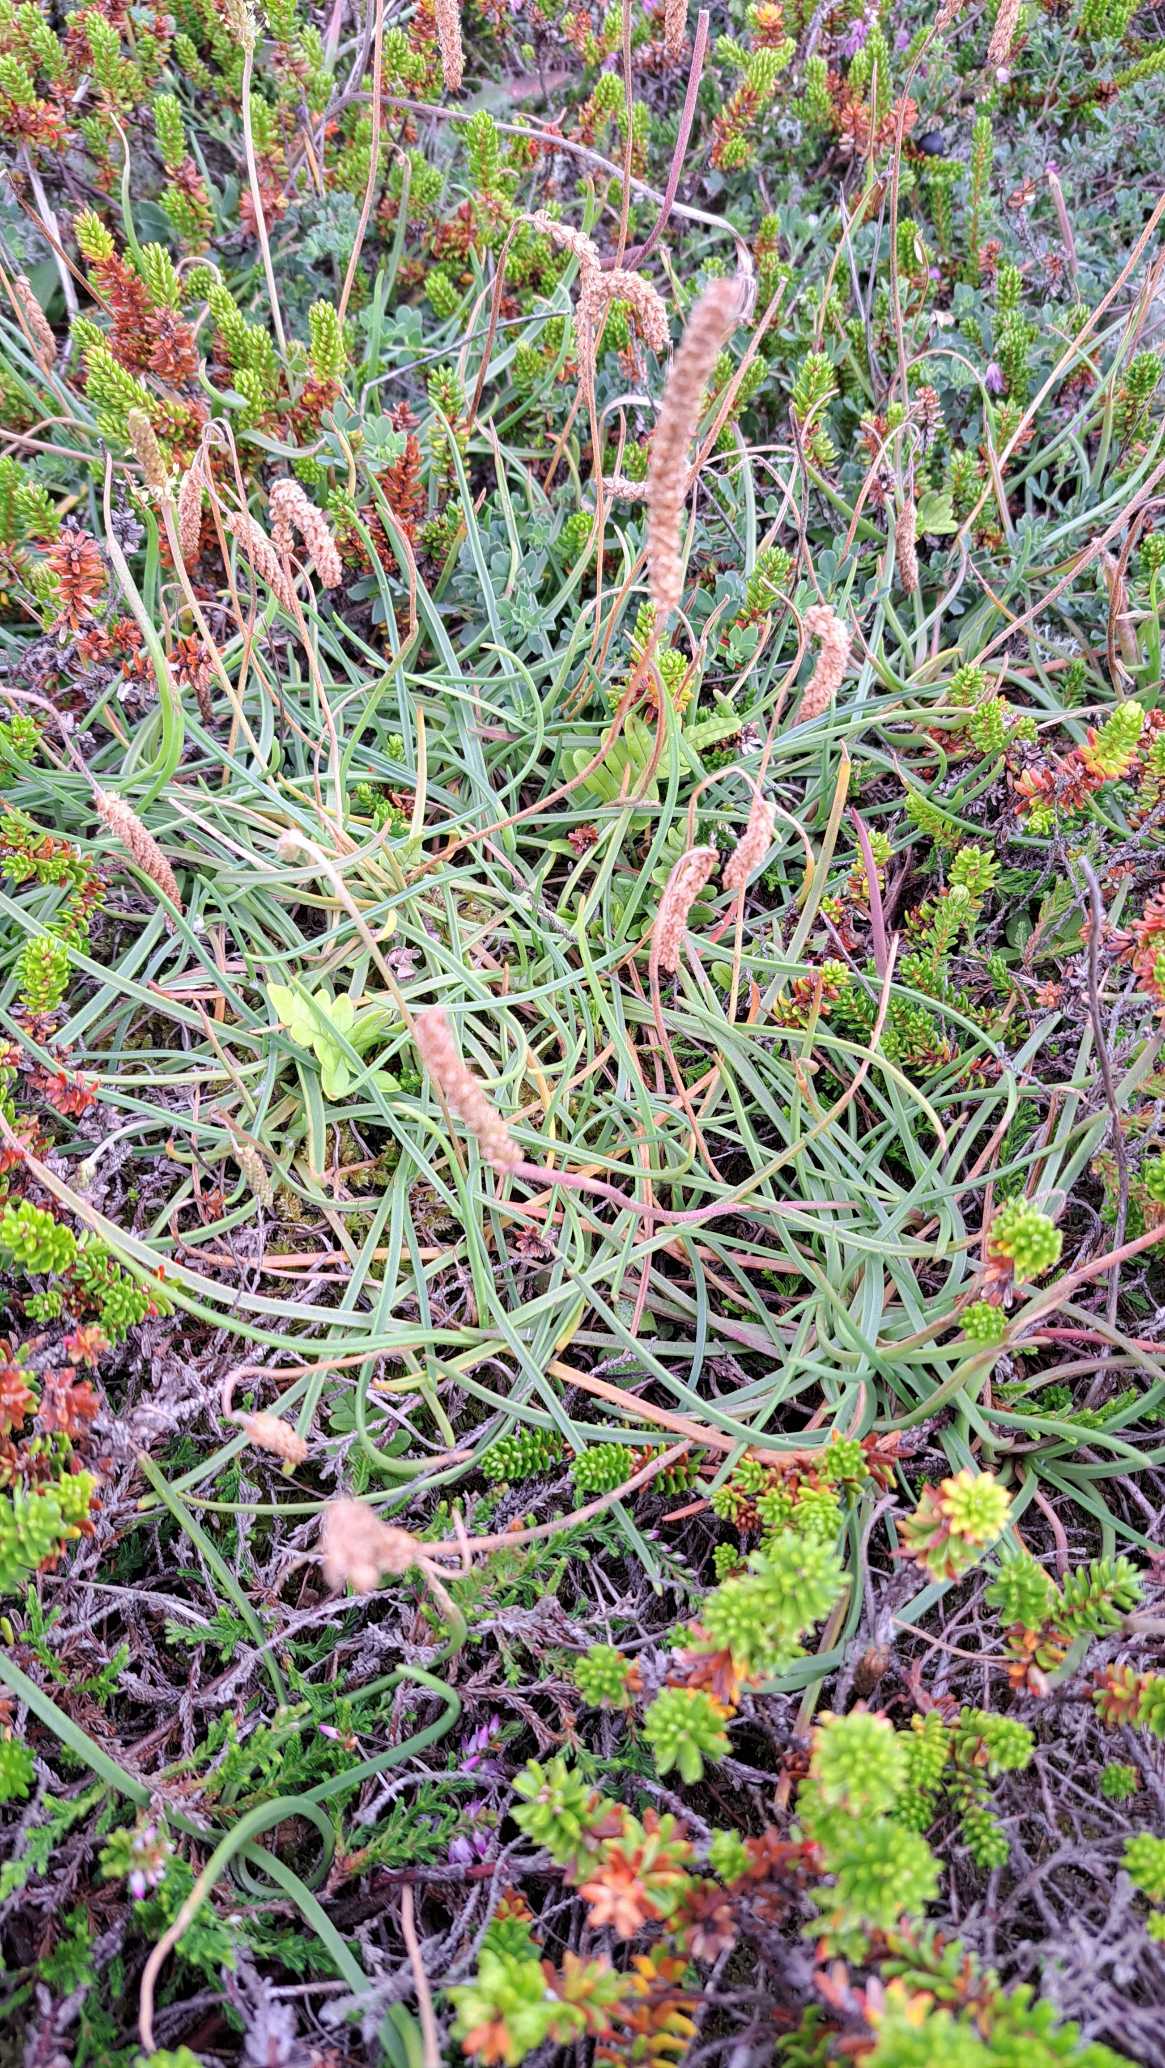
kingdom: Plantae
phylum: Tracheophyta
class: Magnoliopsida
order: Lamiales
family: Plantaginaceae
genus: Plantago
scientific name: Plantago maritima
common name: Strand-vejbred
